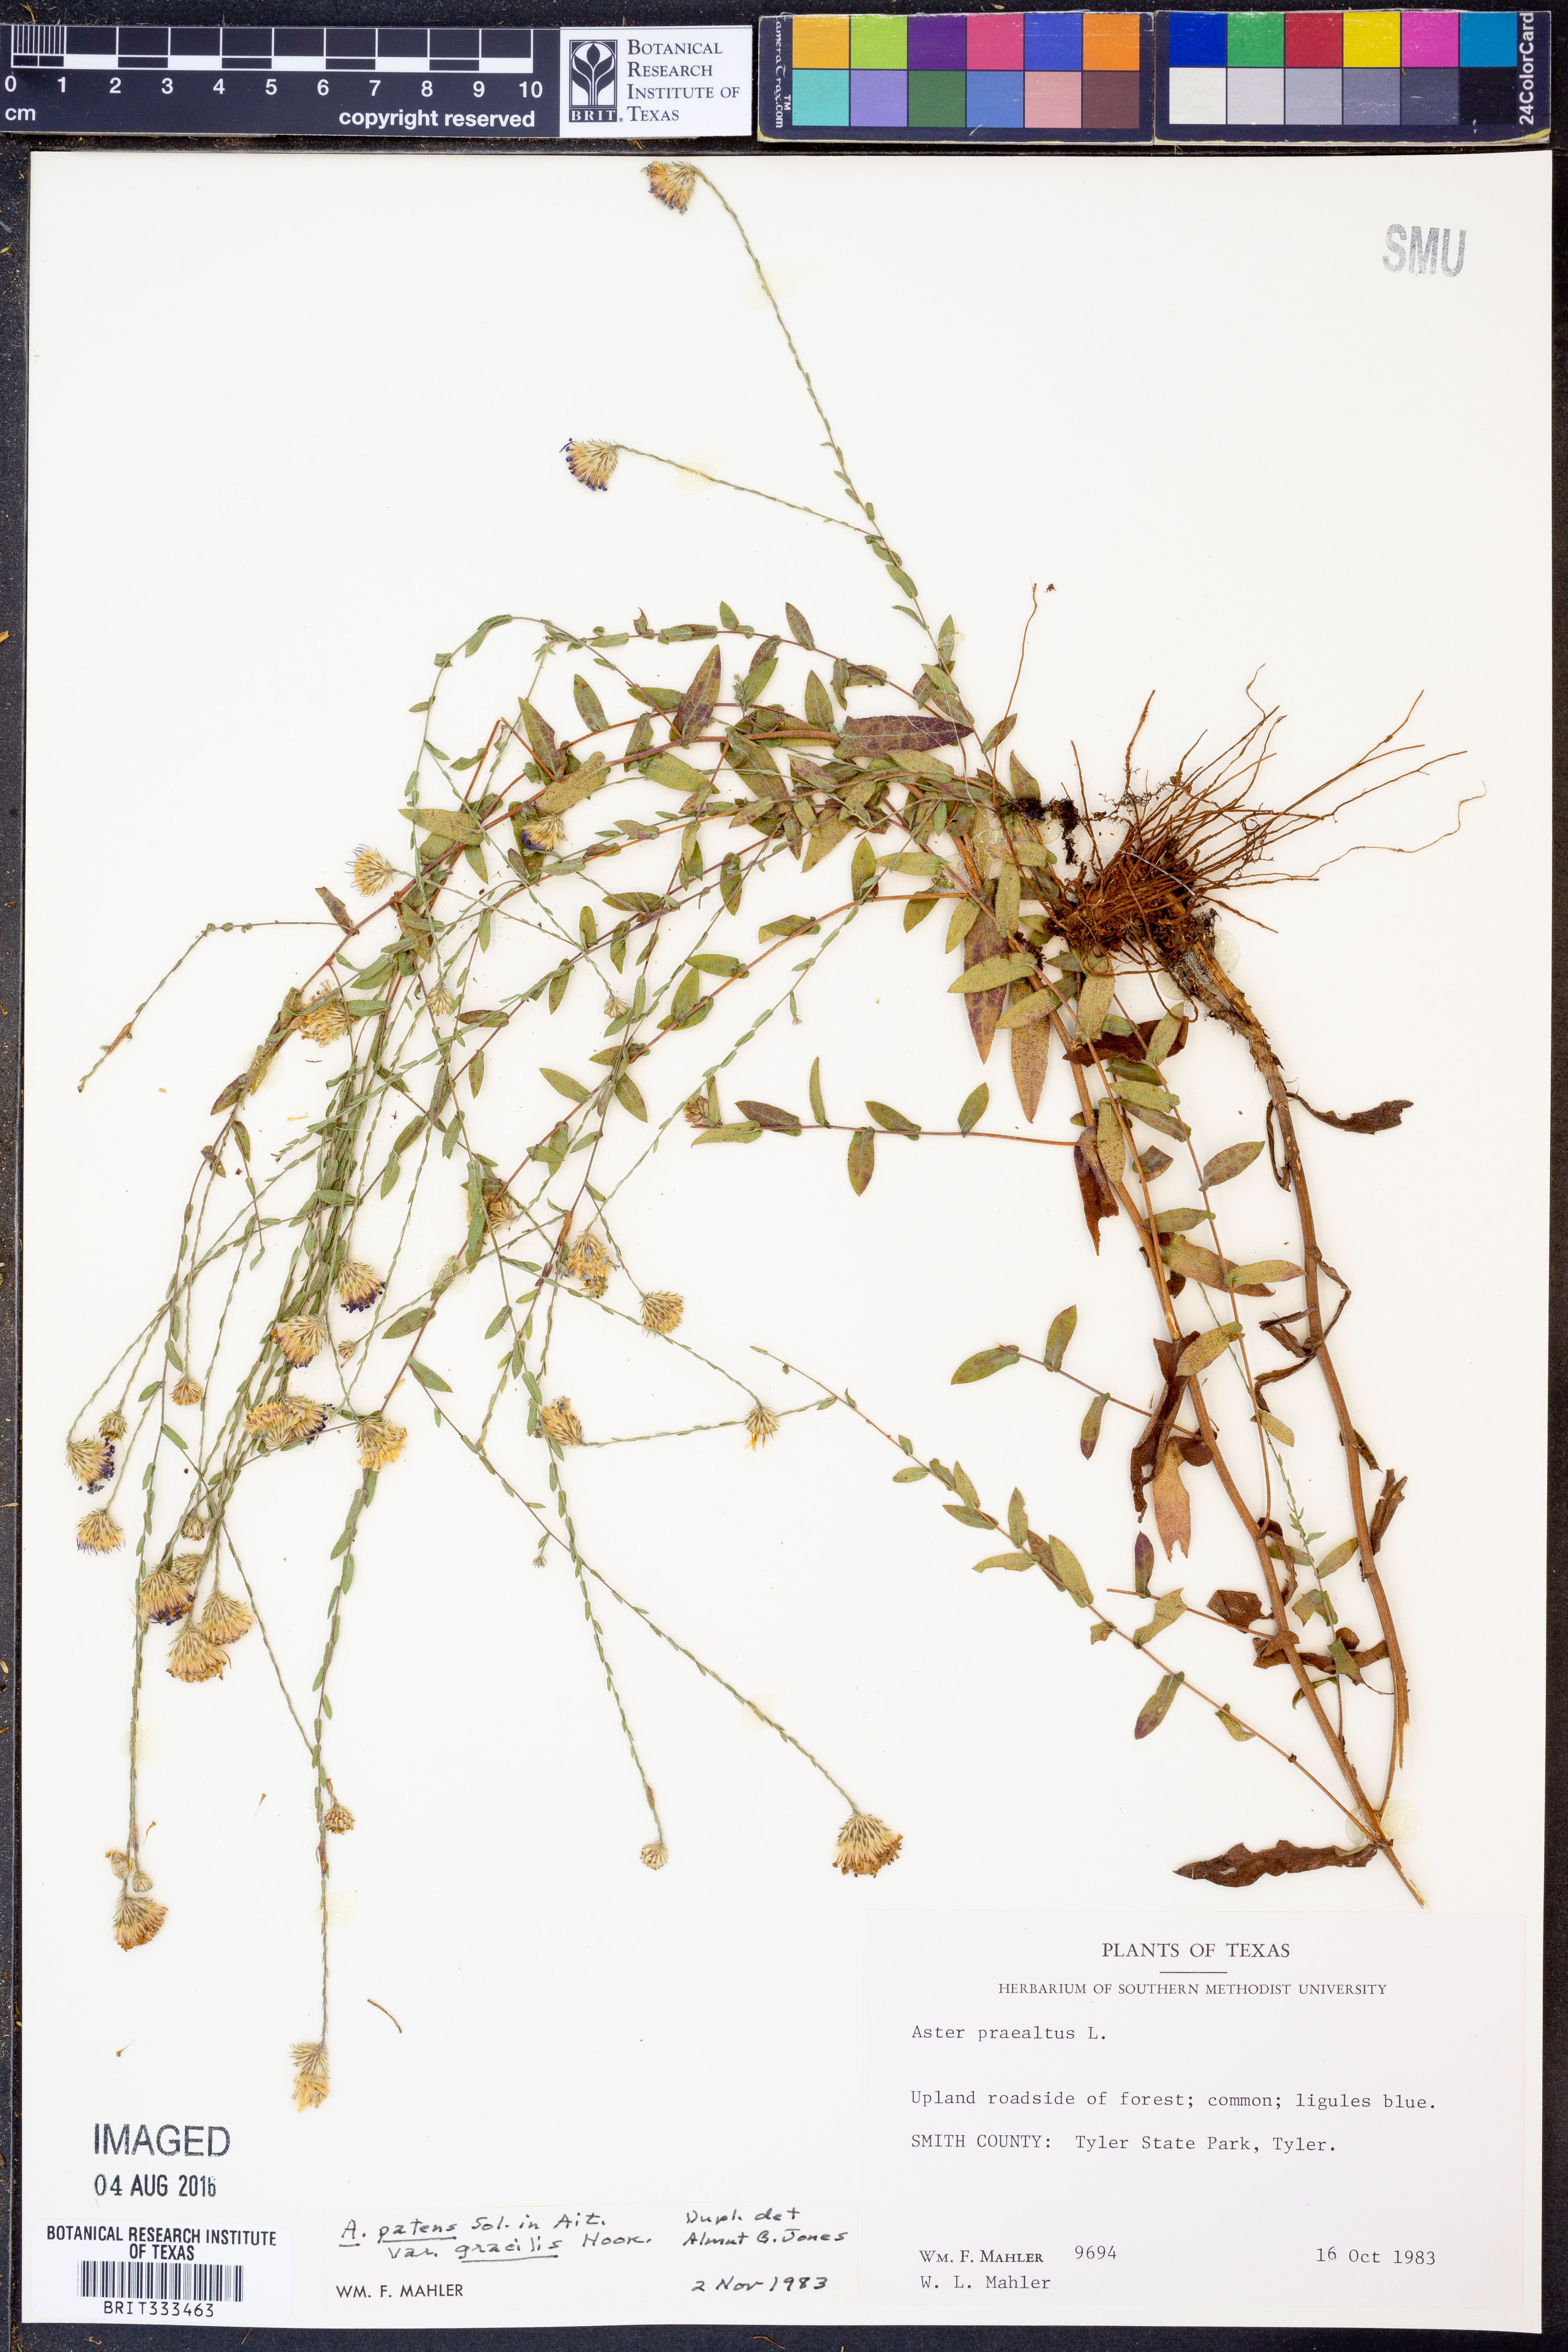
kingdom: Plantae
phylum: Tracheophyta
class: Magnoliopsida
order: Asterales
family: Asteraceae
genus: Symphyotrichum
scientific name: Symphyotrichum patens
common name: Late purple aster
